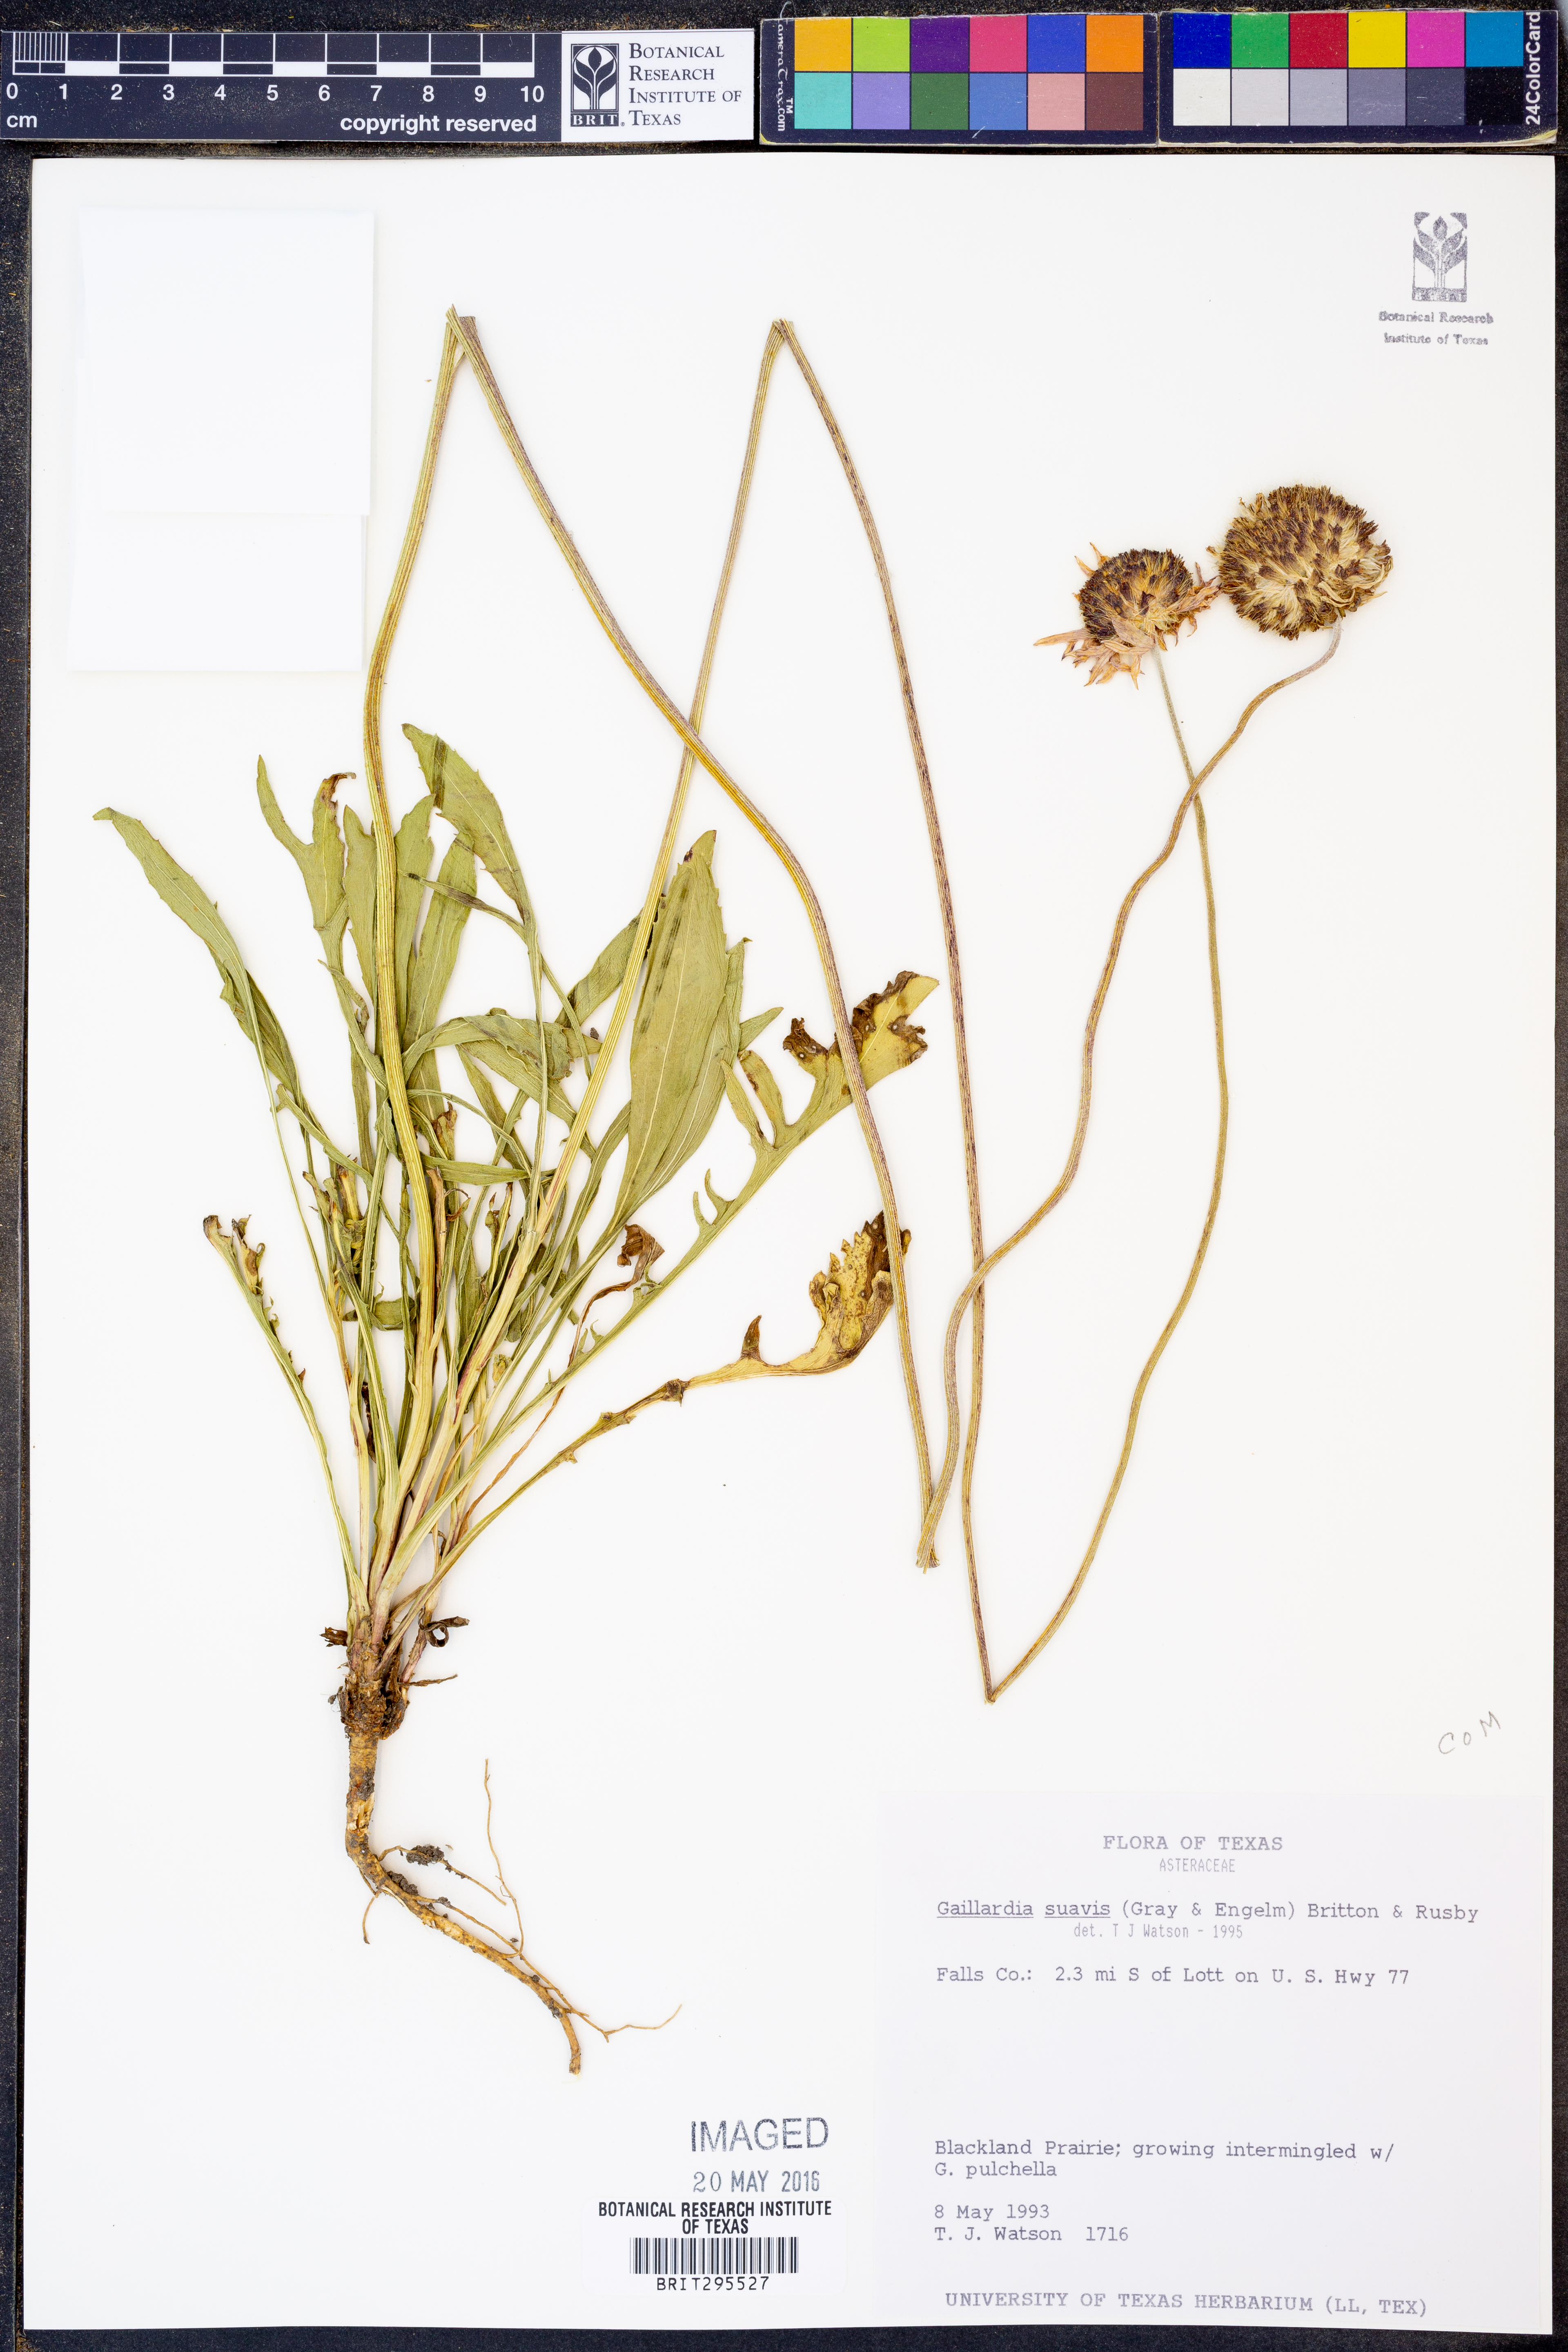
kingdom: Plantae
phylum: Tracheophyta
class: Magnoliopsida
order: Asterales
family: Asteraceae
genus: Gaillardia
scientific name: Gaillardia suavis
